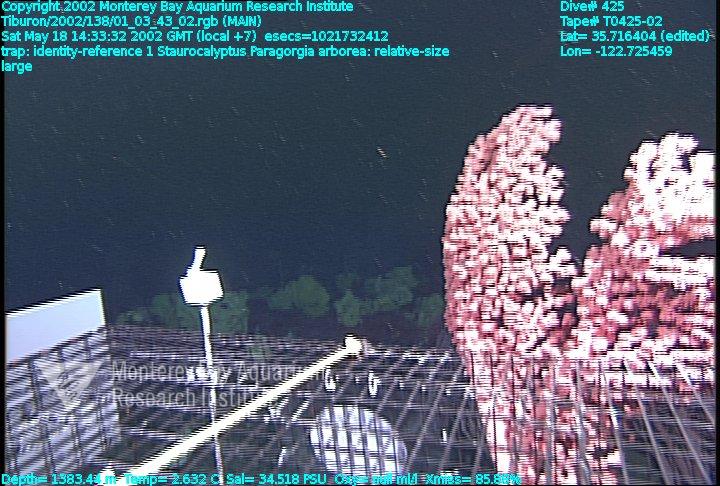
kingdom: Animalia
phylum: Porifera
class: Hexactinellida
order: Lyssacinosida
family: Rossellidae
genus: Staurocalyptus
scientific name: Staurocalyptus
